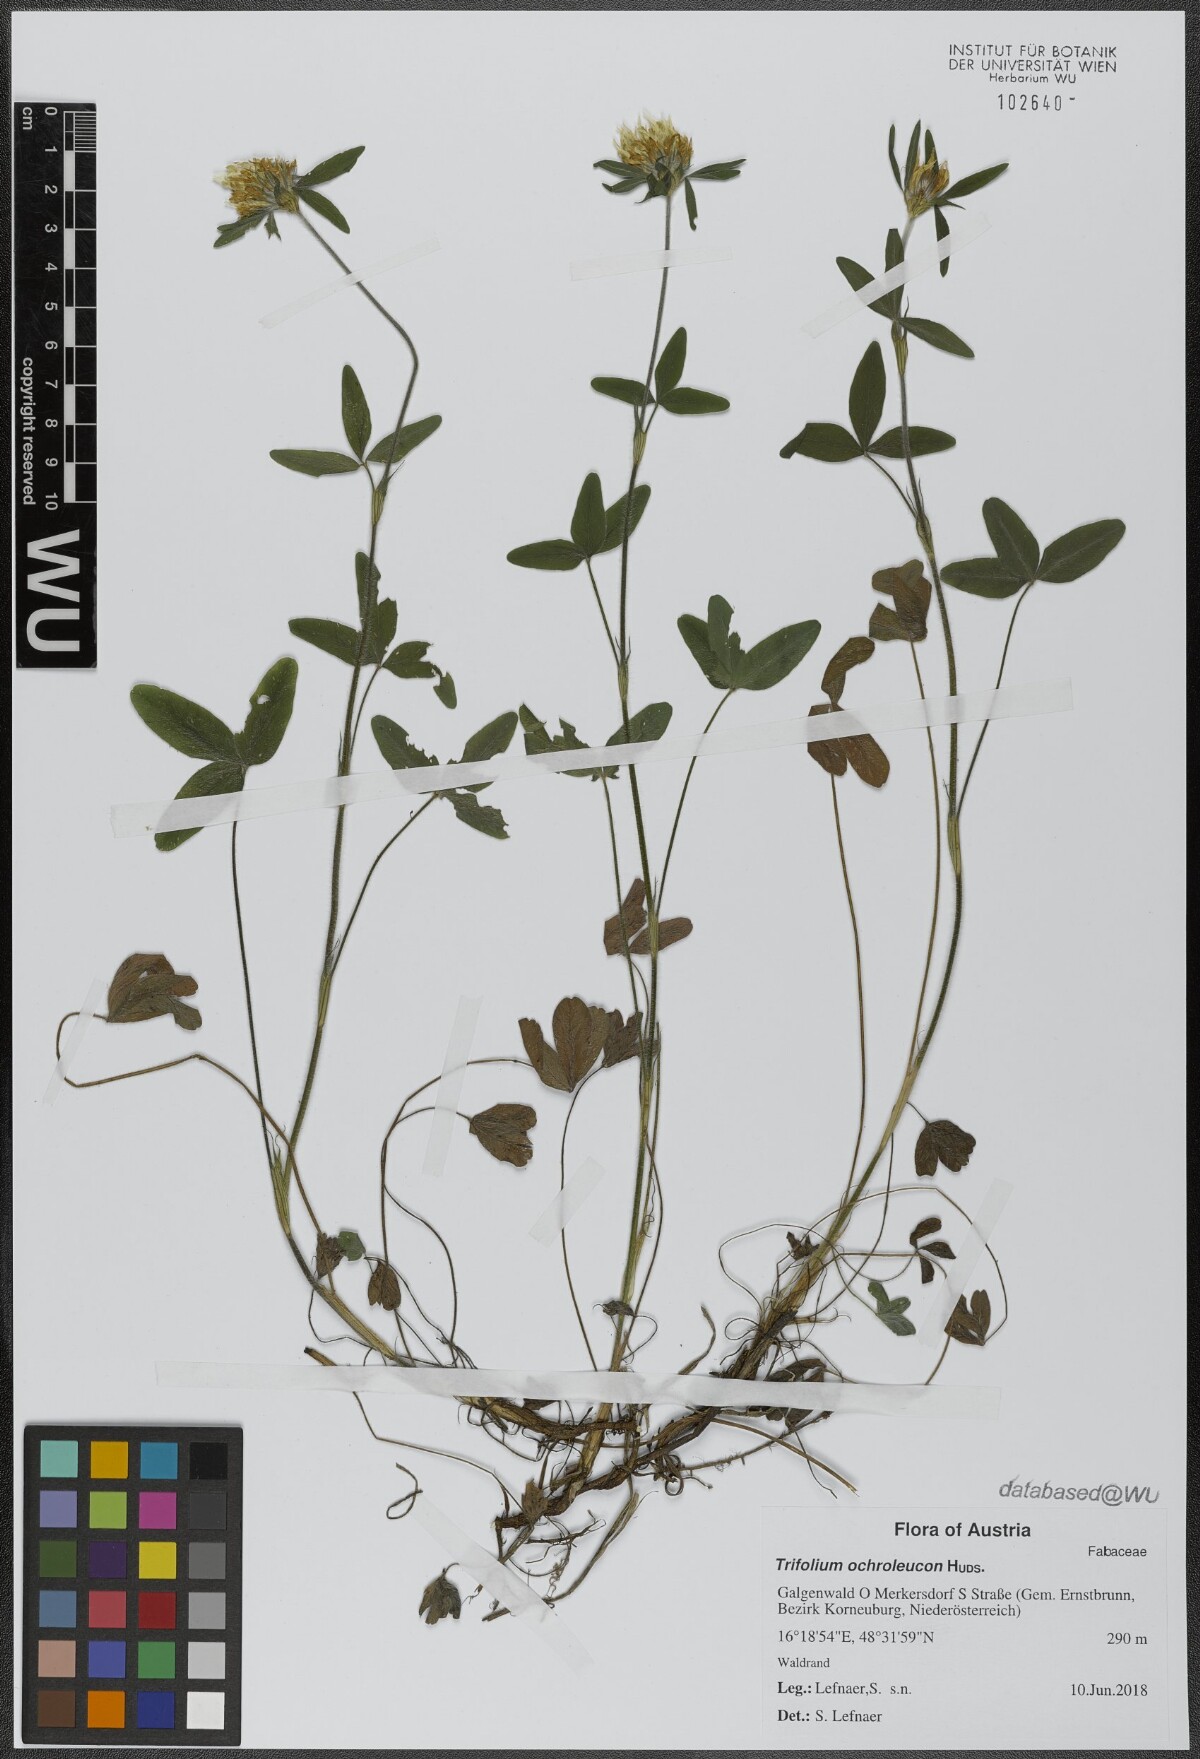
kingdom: Plantae
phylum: Tracheophyta
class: Magnoliopsida
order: Fabales
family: Fabaceae
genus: Trifolium
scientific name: Trifolium ochroleucon
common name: Sulphur clover
